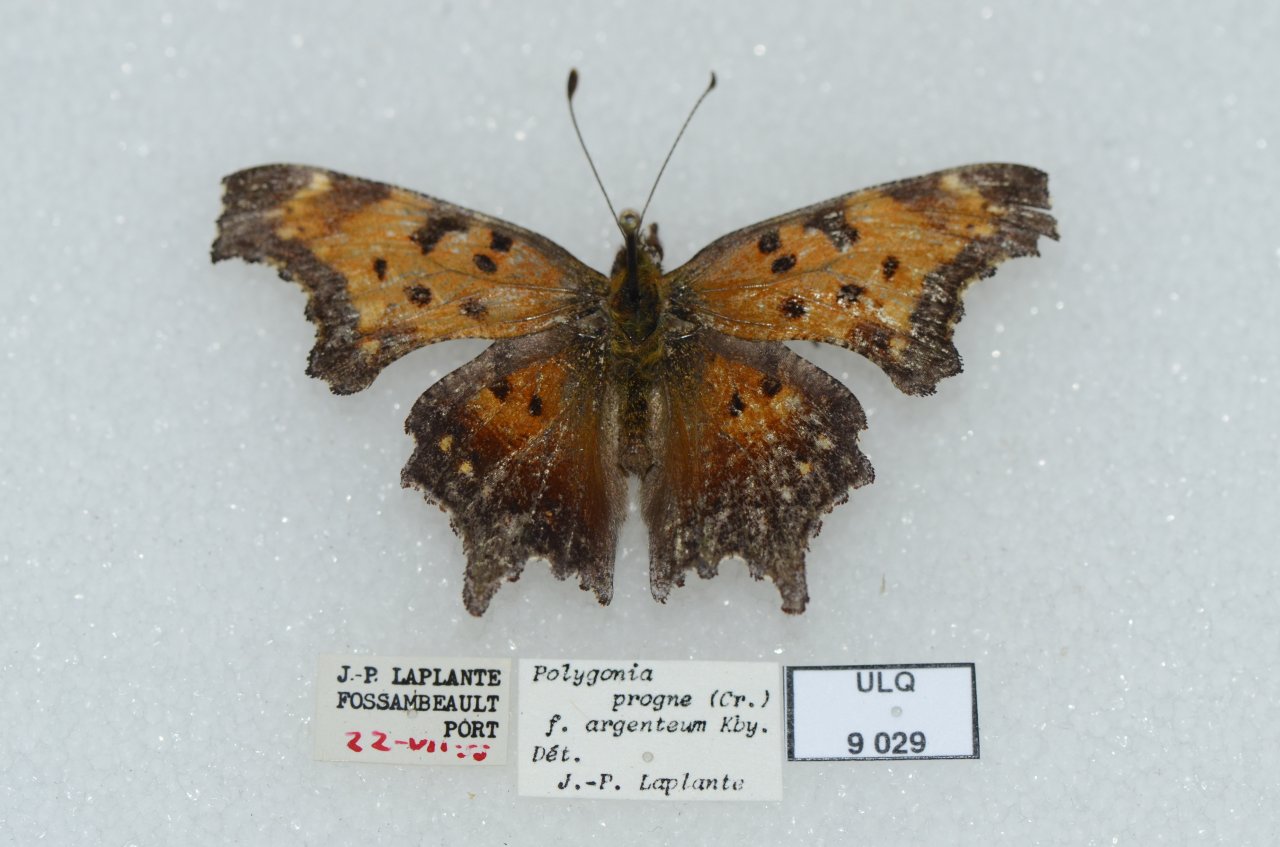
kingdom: Animalia
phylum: Arthropoda
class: Insecta
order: Lepidoptera
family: Nymphalidae
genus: Polygonia
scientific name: Polygonia progne
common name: Gray Comma
